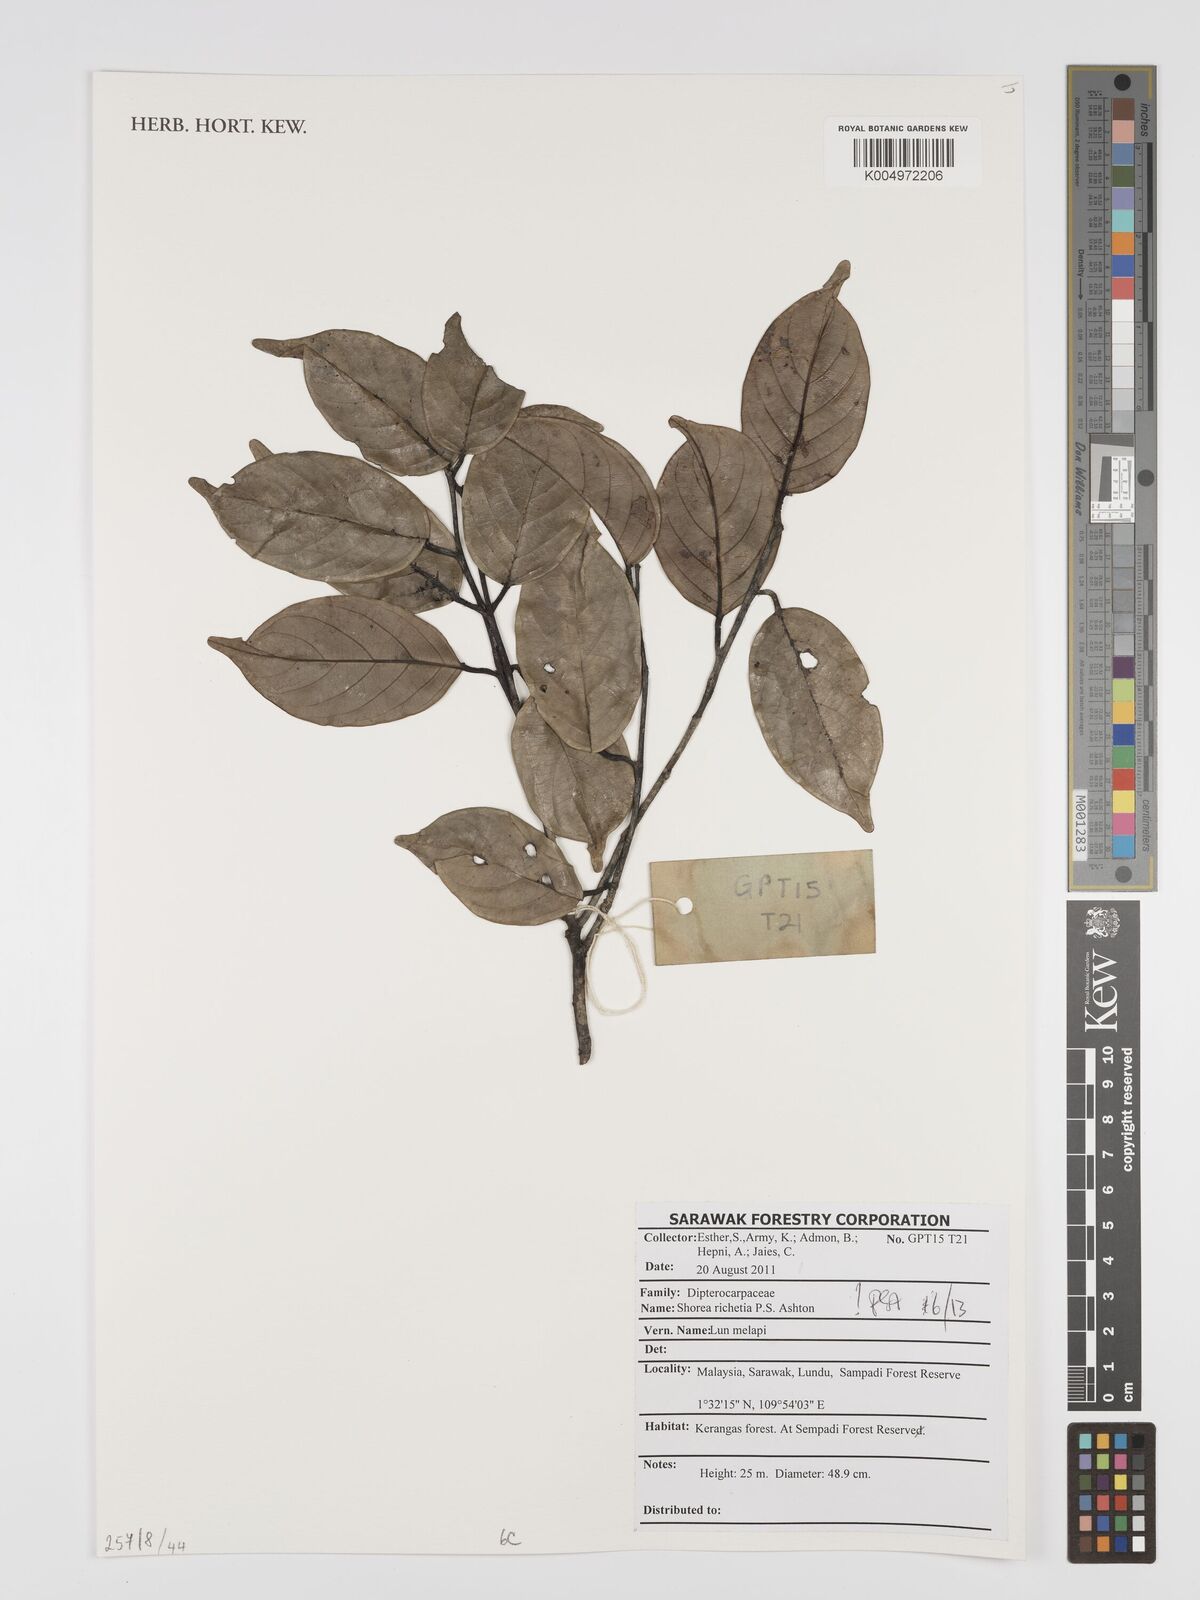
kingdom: Plantae
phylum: Tracheophyta
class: Magnoliopsida
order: Malvales
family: Dipterocarpaceae
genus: Shorea
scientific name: Shorea richetia
